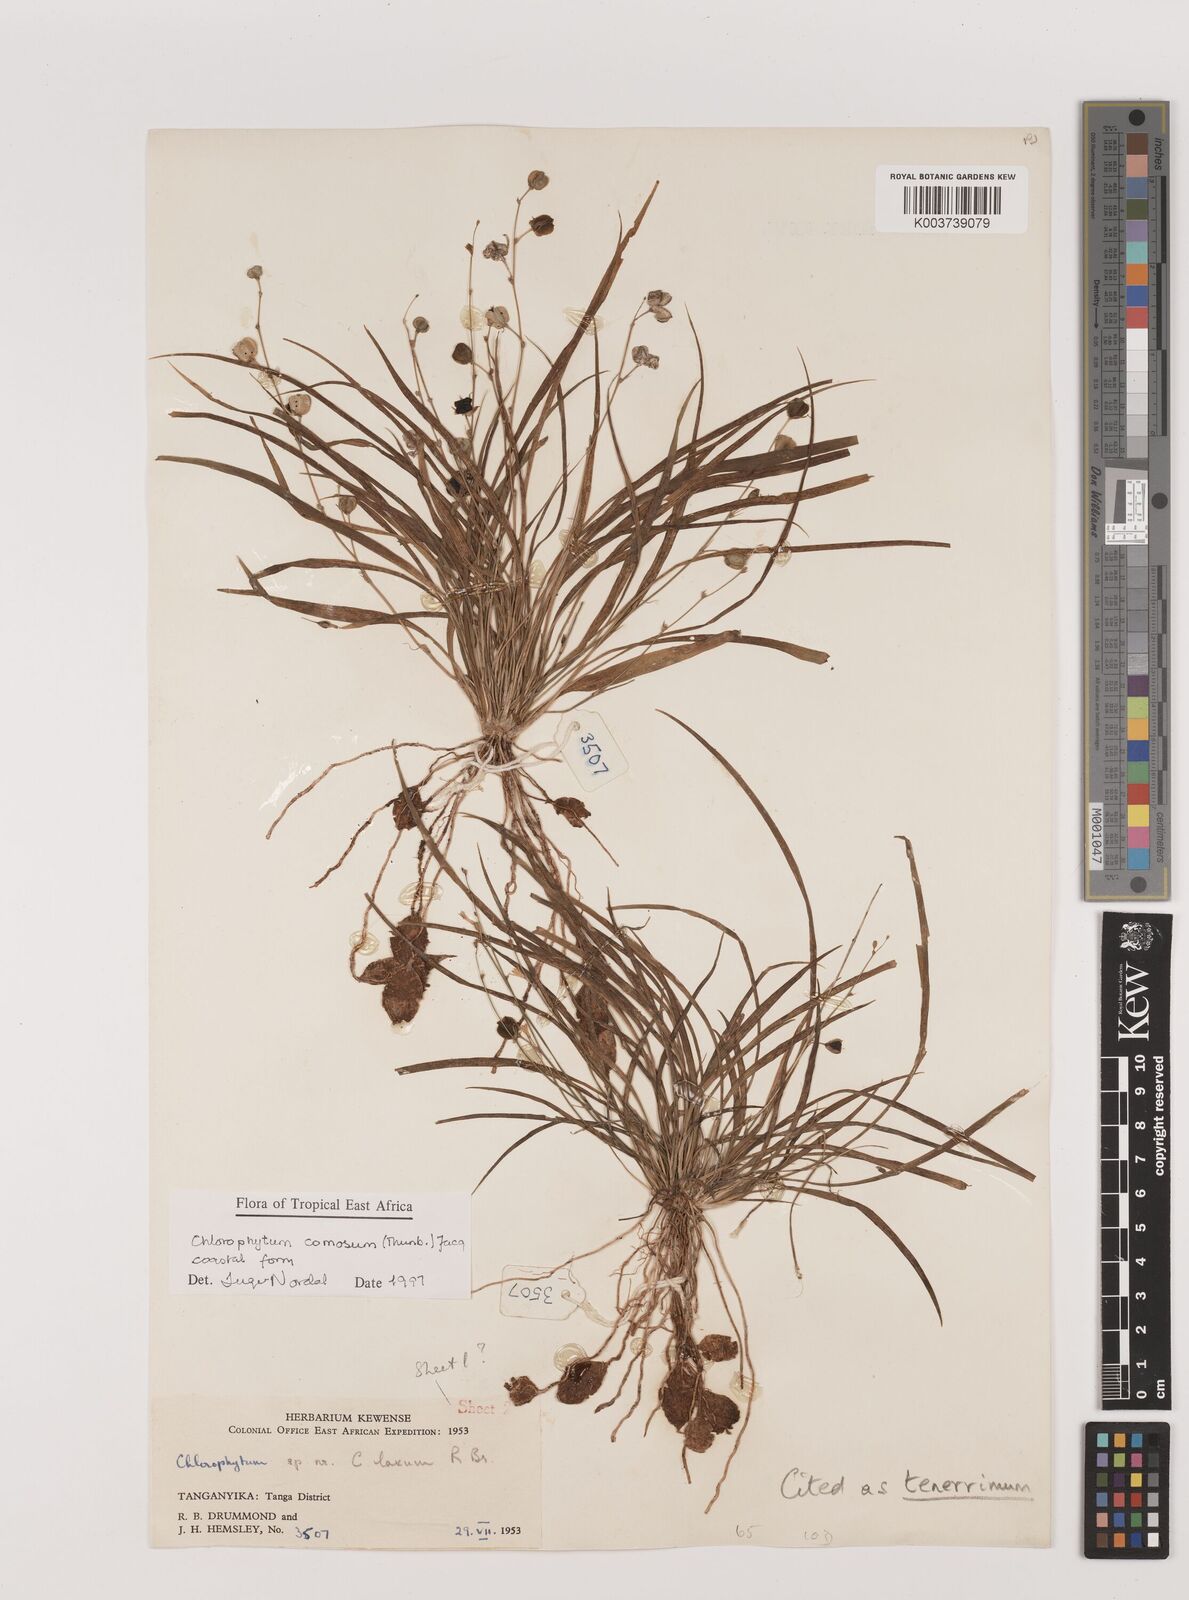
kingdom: Plantae
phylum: Tracheophyta
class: Liliopsida
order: Asparagales
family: Asparagaceae
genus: Chlorophytum
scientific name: Chlorophytum tenerrimum
